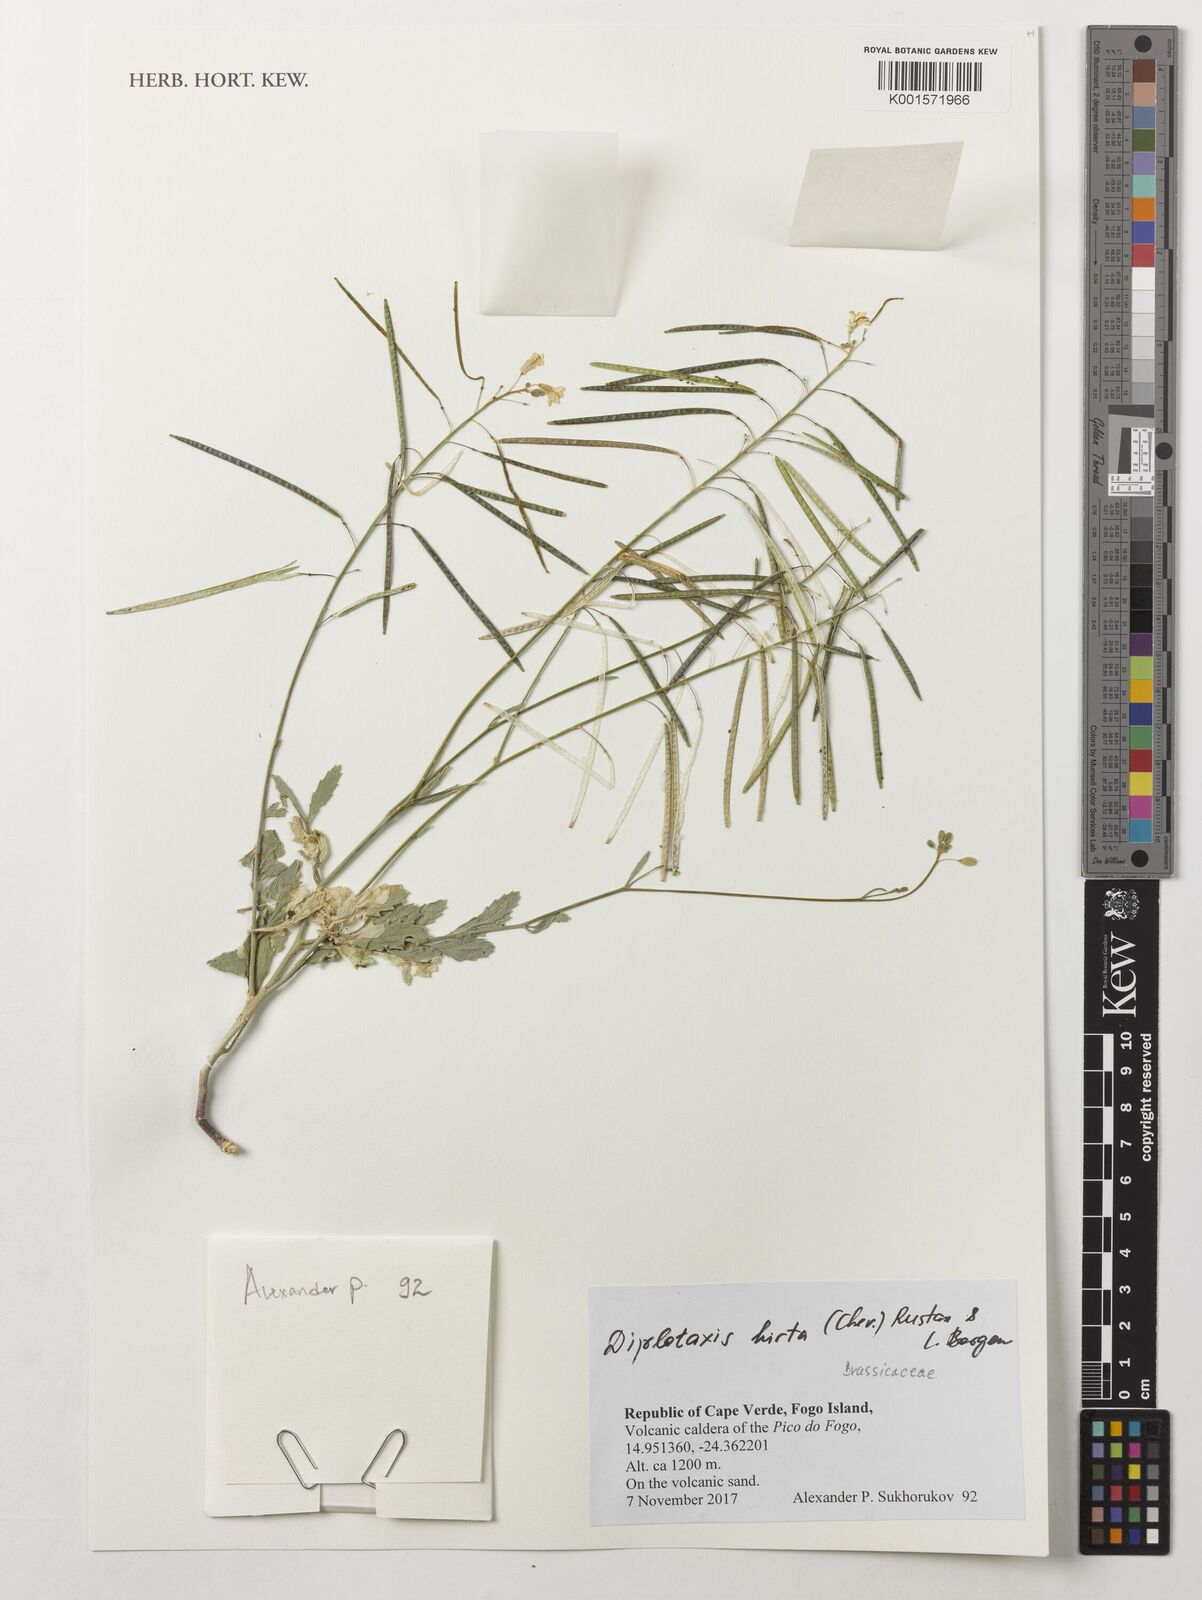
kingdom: Plantae
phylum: Tracheophyta
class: Magnoliopsida
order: Brassicales
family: Brassicaceae
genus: Diplotaxis
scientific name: Diplotaxis hirta
